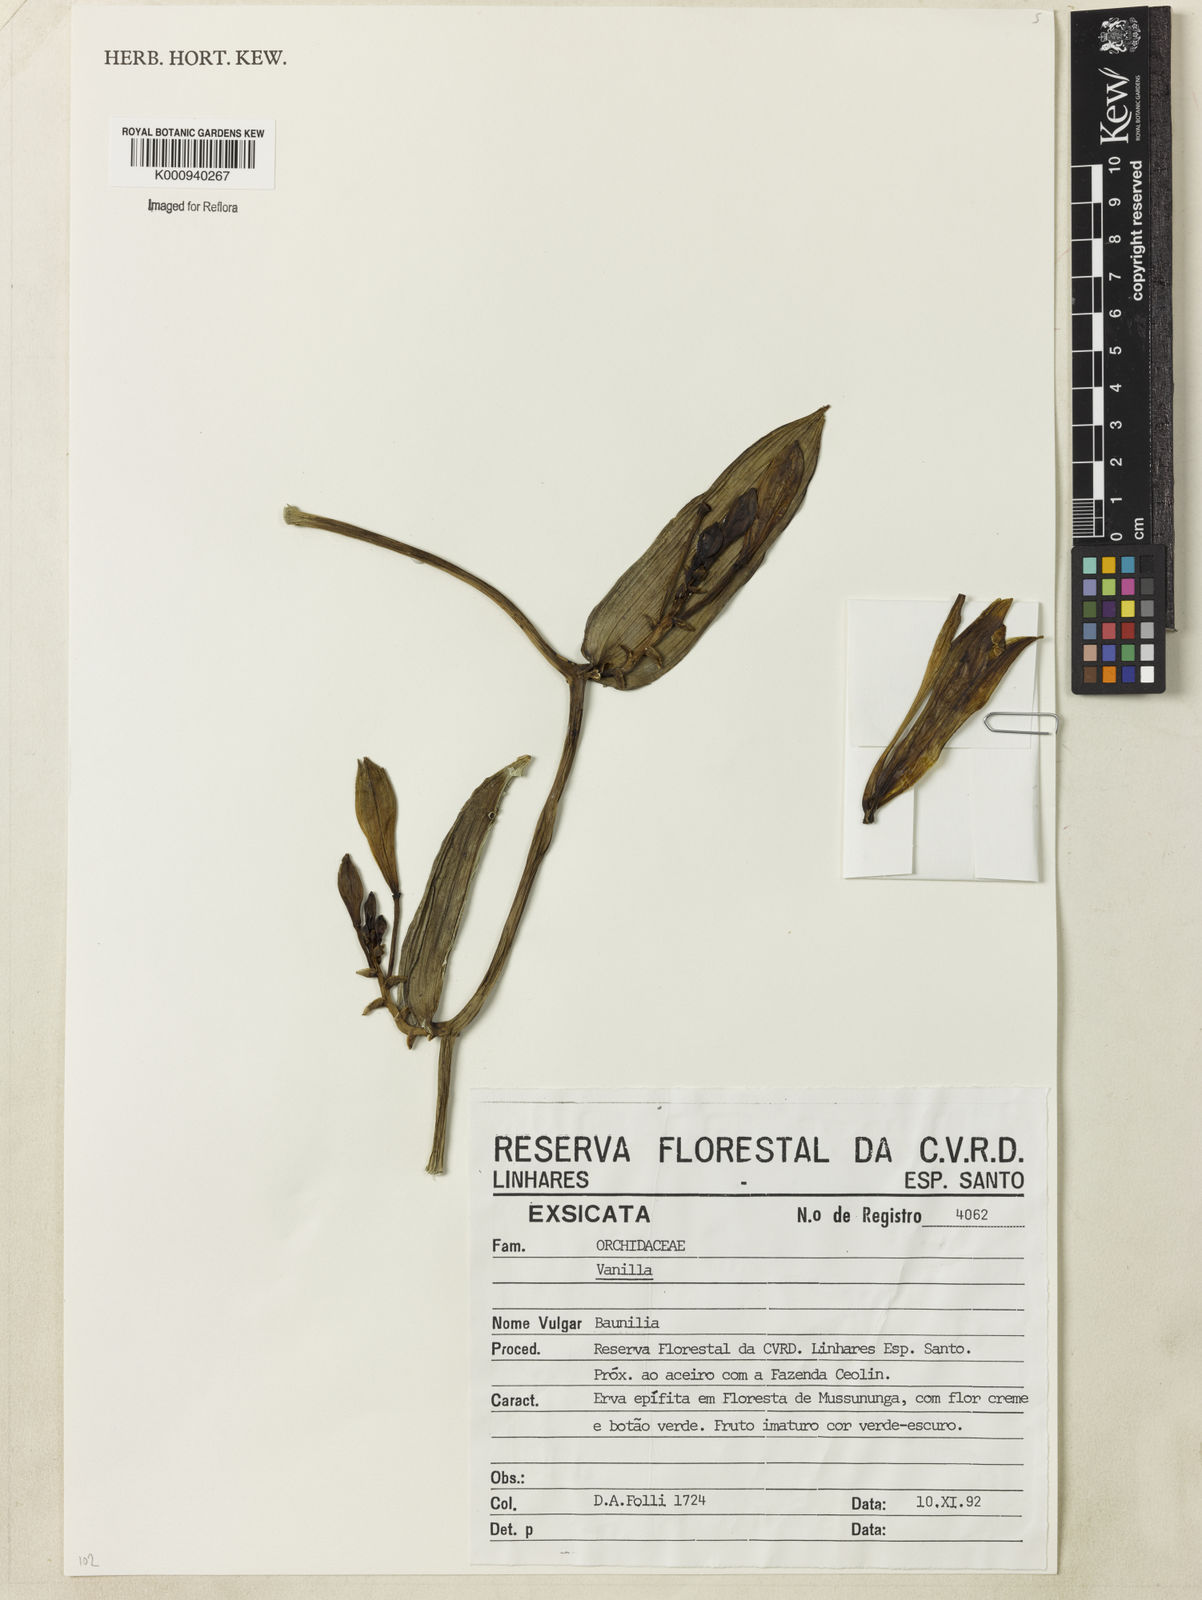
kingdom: Plantae
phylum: Tracheophyta
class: Liliopsida
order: Asparagales
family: Orchidaceae
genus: Vanilla
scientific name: Vanilla
